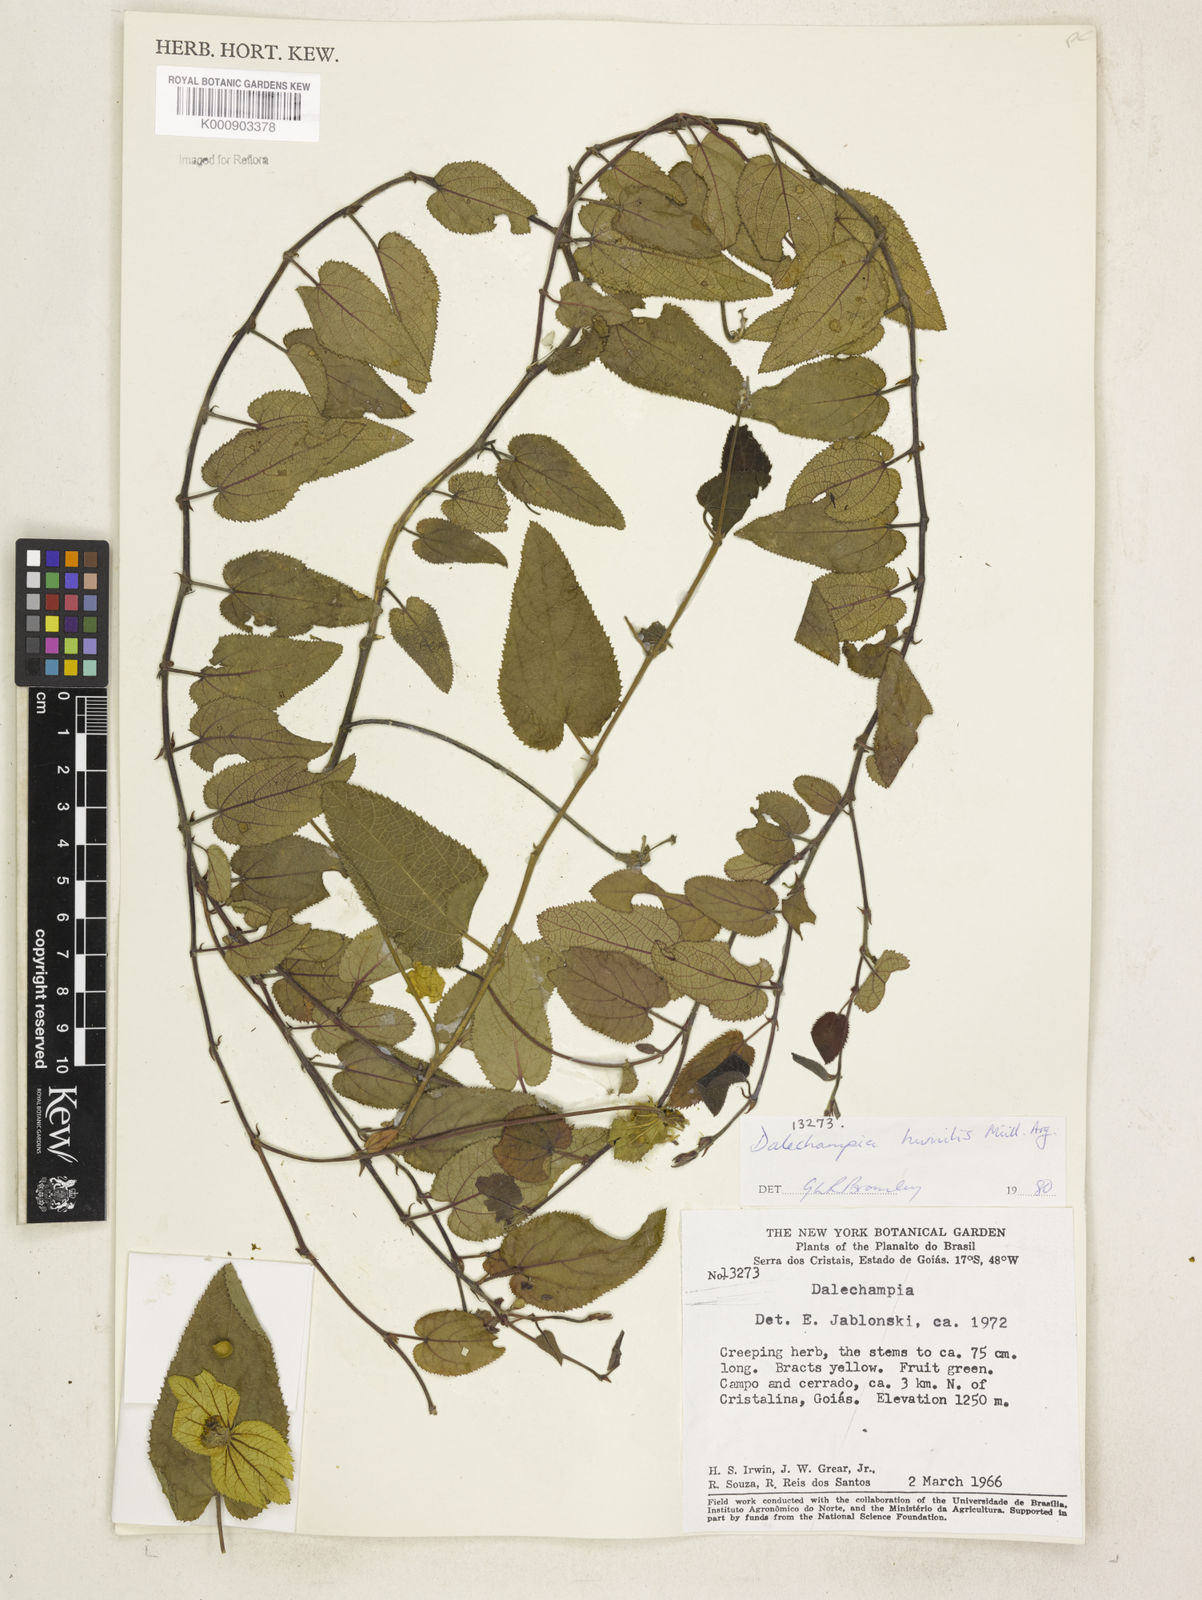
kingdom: Plantae
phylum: Tracheophyta
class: Magnoliopsida
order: Malpighiales
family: Euphorbiaceae
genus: Dalechampia
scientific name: Dalechampia
